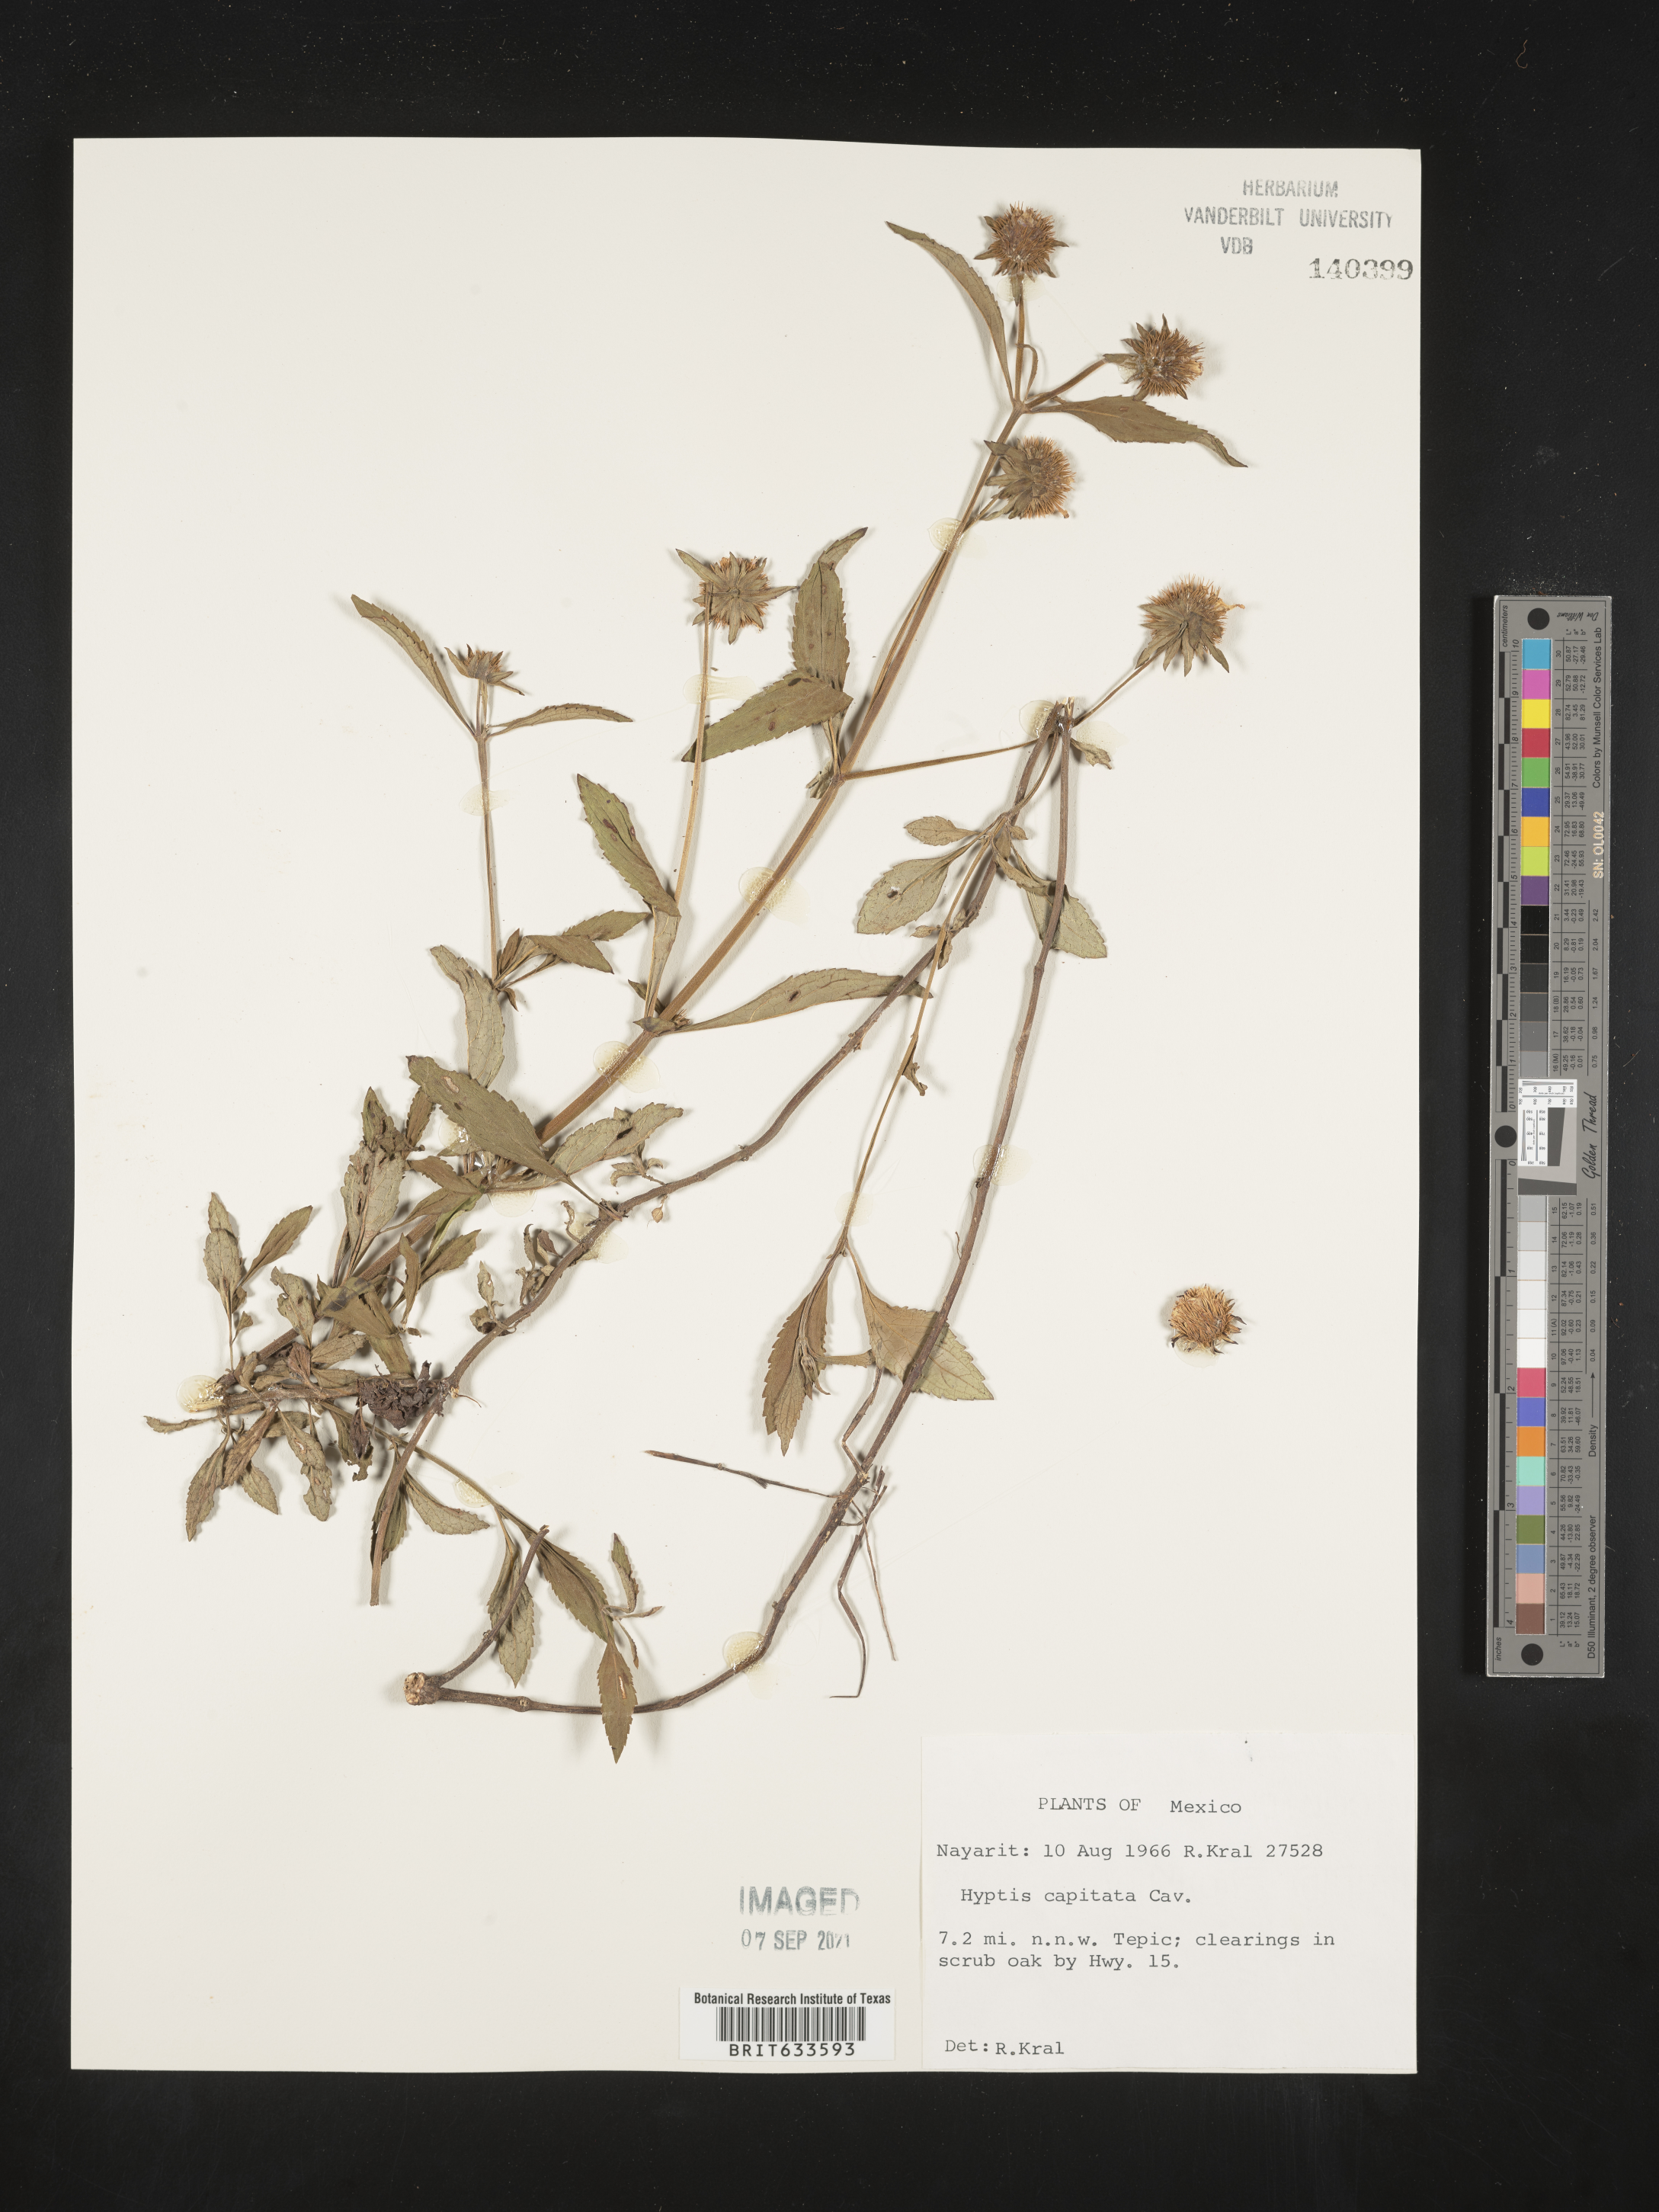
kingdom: Plantae
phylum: Tracheophyta
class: Magnoliopsida
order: Lamiales
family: Lamiaceae
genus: Hyptis
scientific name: Hyptis
